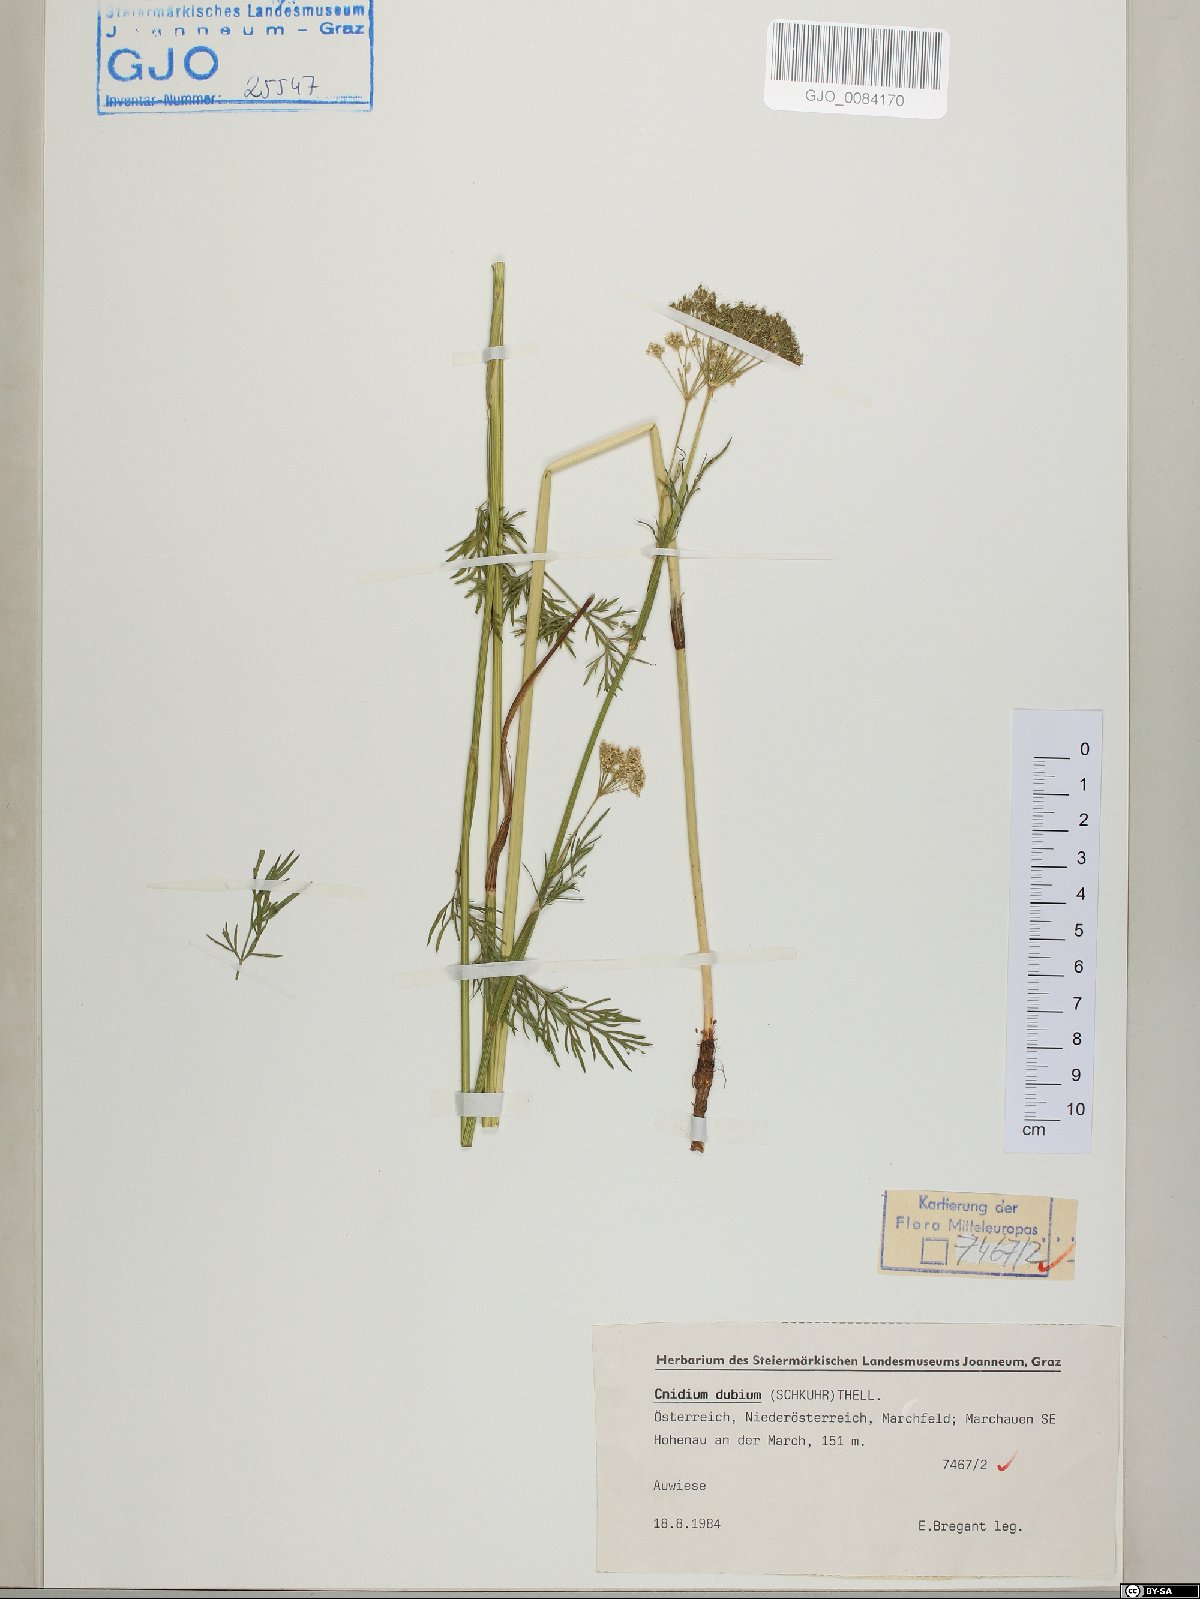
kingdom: Plantae
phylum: Tracheophyta
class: Magnoliopsida
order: Apiales
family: Apiaceae
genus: Kadenia
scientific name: Kadenia dubia
